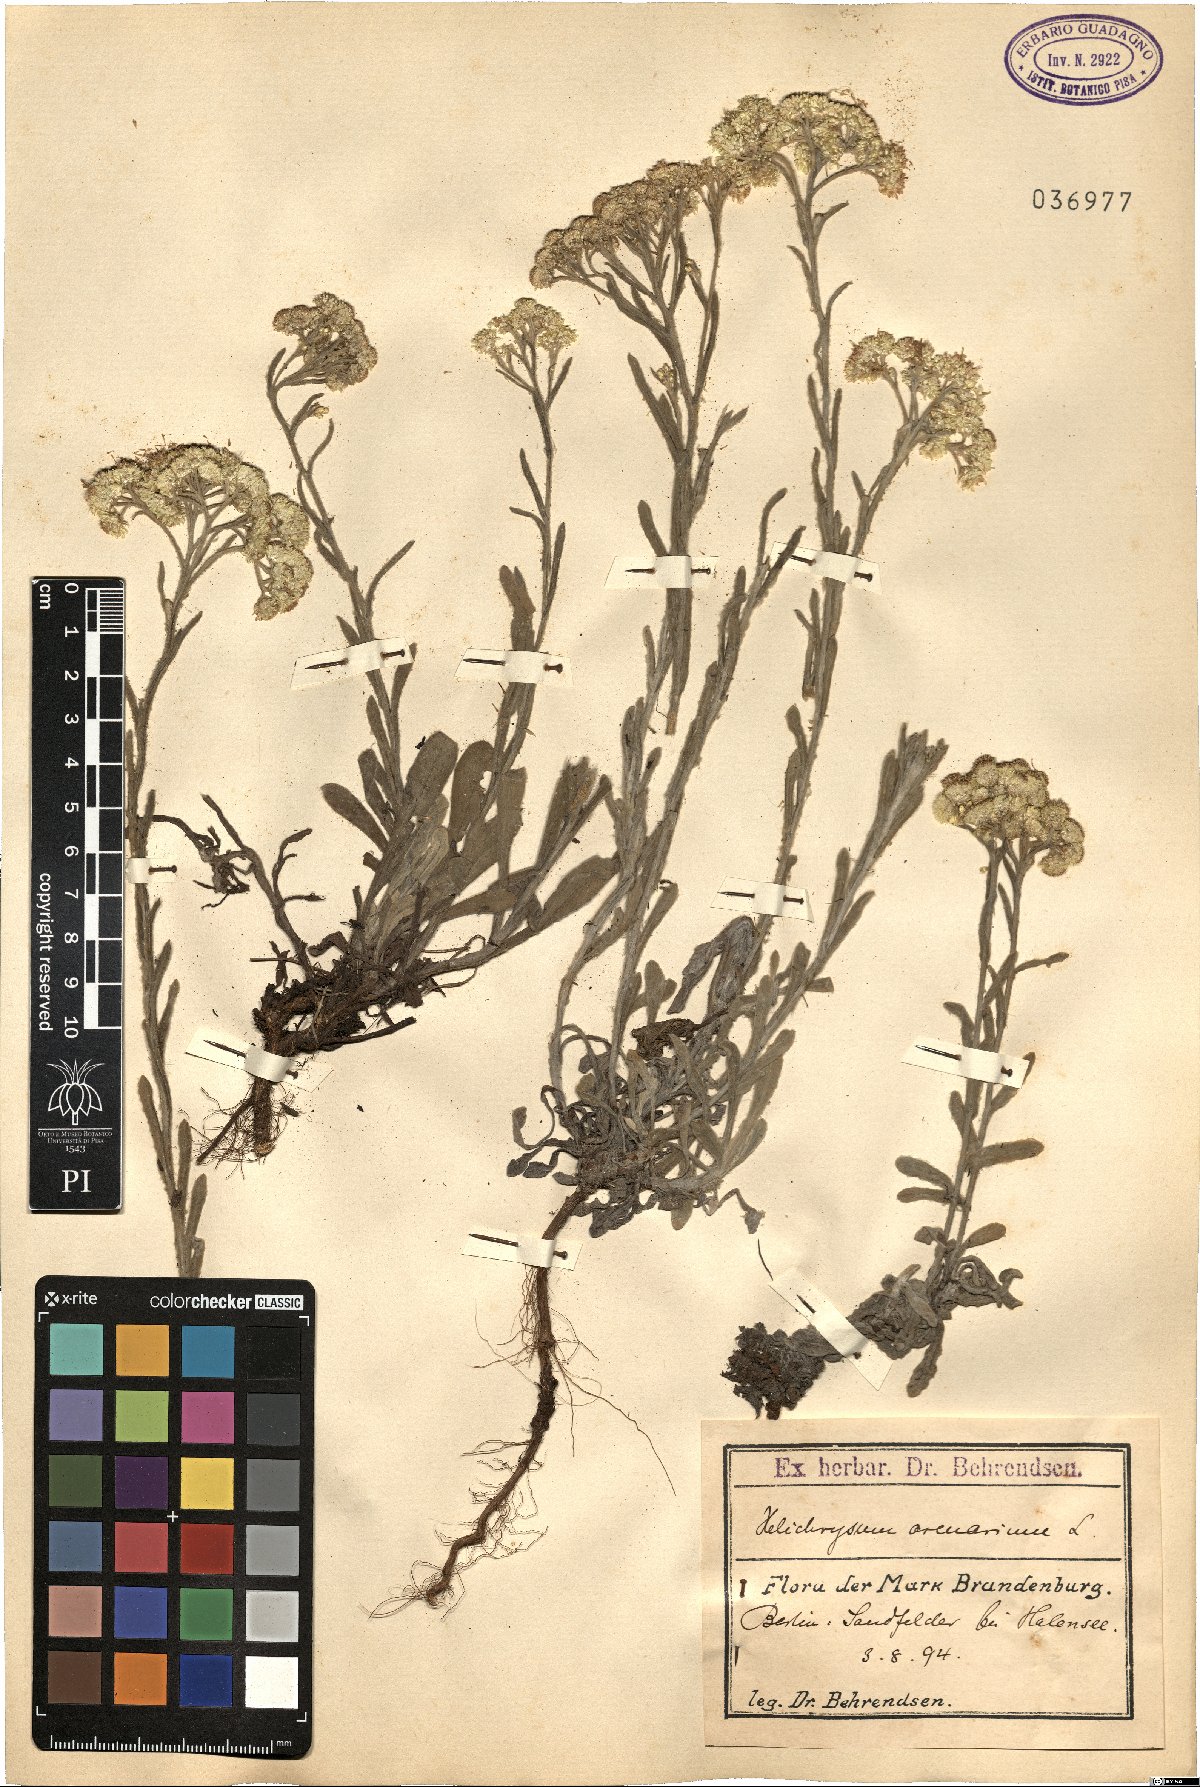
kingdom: Plantae
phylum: Tracheophyta
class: Magnoliopsida
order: Asterales
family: Asteraceae
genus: Helichrysum
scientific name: Helichrysum arenarium
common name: Strawflower
